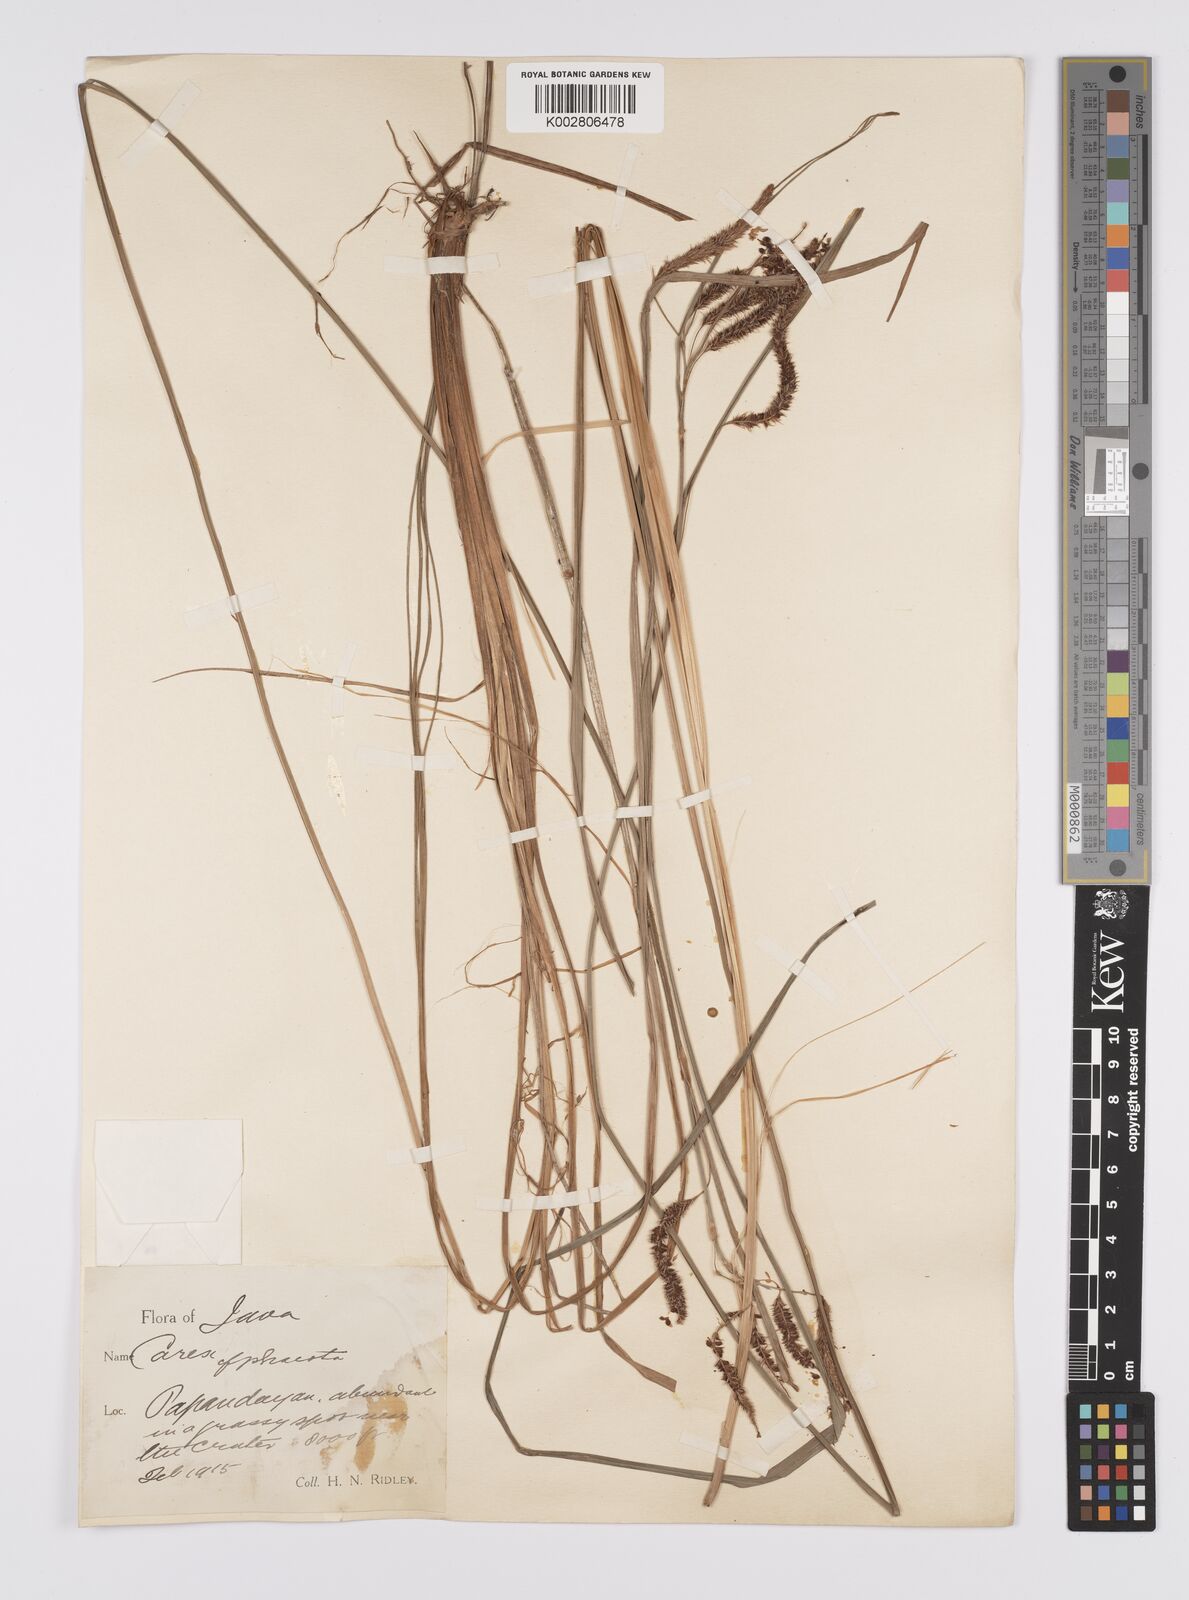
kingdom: Plantae
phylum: Tracheophyta
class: Liliopsida
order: Poales
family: Cyperaceae
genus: Carex
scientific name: Carex phacota
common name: Lakeshore sedge
